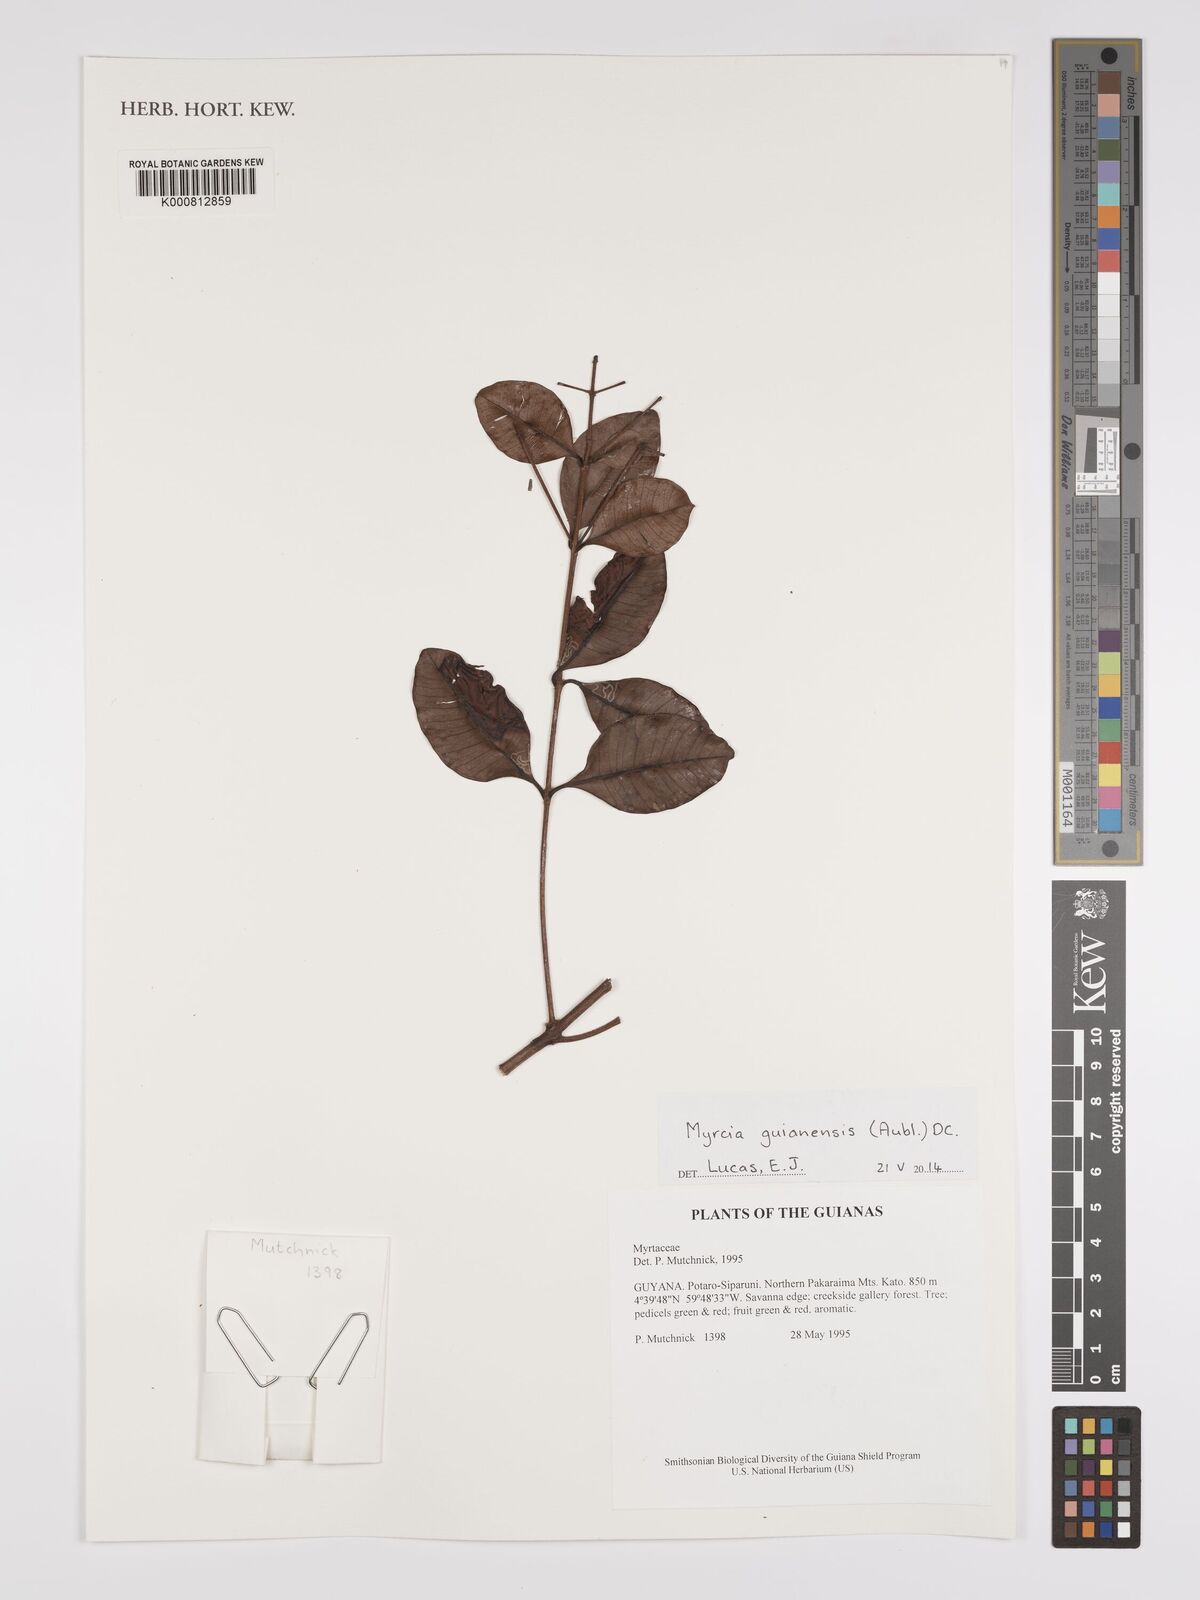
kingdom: Plantae
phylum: Tracheophyta
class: Magnoliopsida
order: Myrtales
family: Myrtaceae
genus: Myrcia
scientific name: Myrcia guianensis
